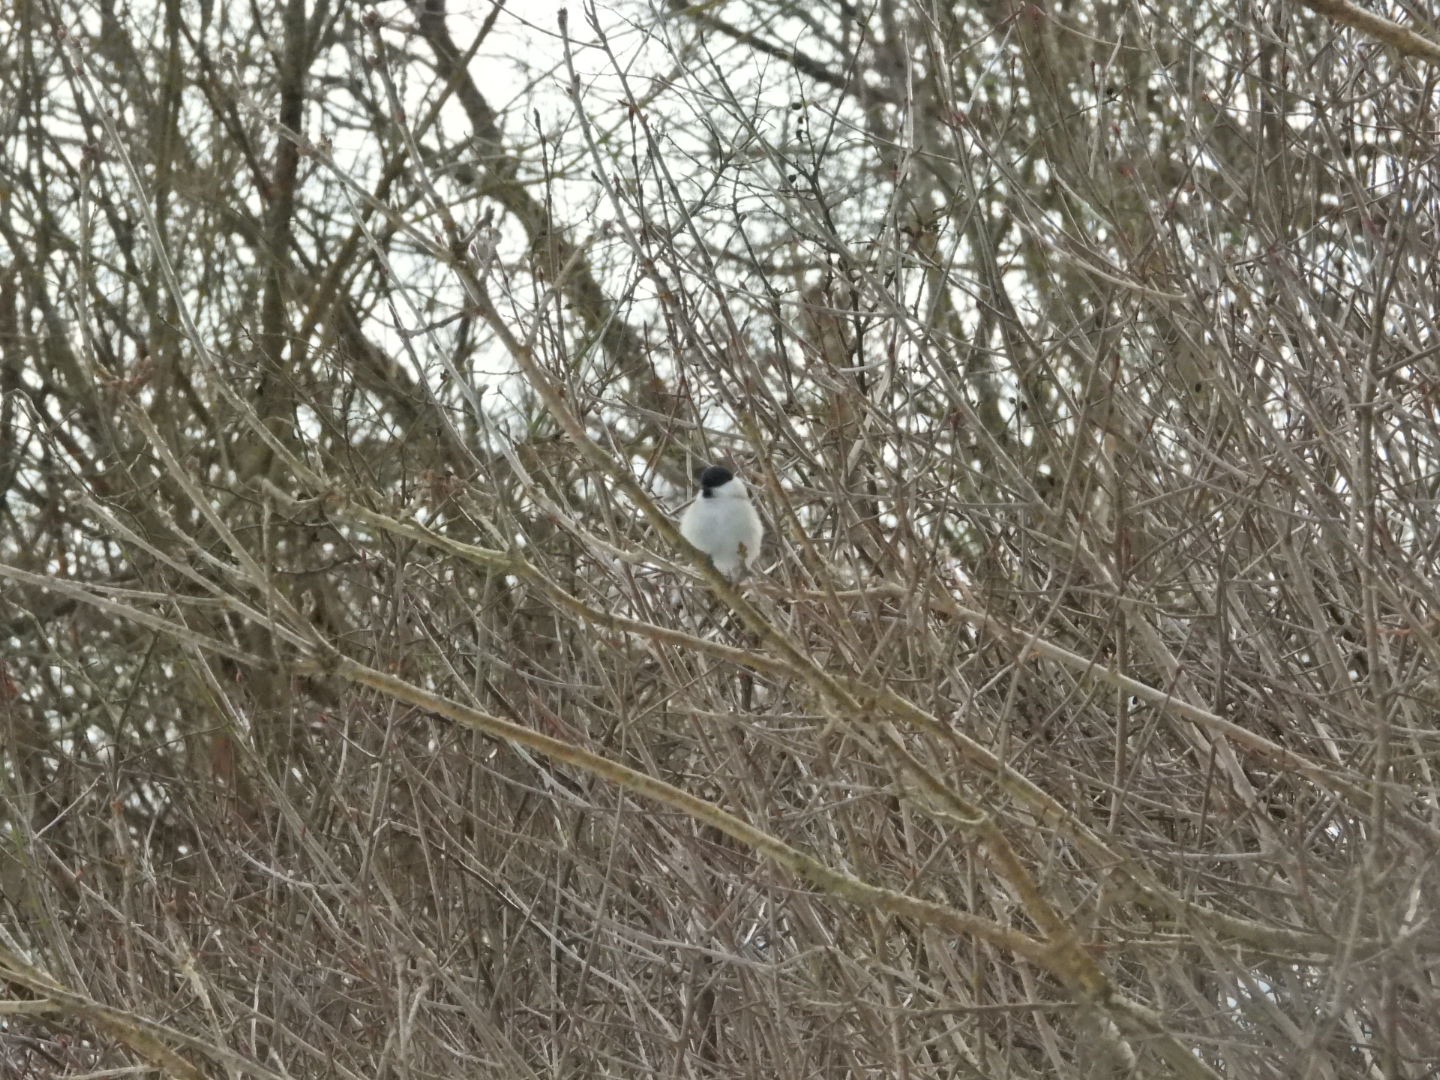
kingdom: Animalia
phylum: Chordata
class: Aves
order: Passeriformes
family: Paridae
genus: Poecile
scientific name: Poecile palustris
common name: Sumpmejse
